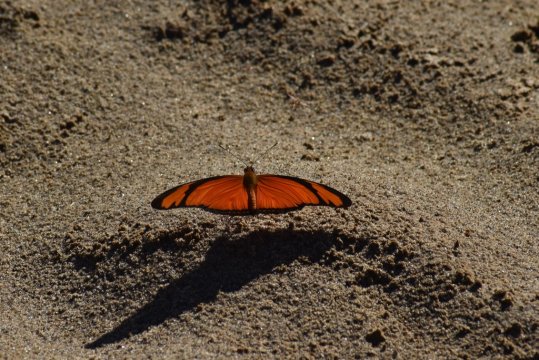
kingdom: Animalia
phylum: Arthropoda
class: Insecta
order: Lepidoptera
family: Nymphalidae
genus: Dryas
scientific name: Dryas iulia
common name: Julia
